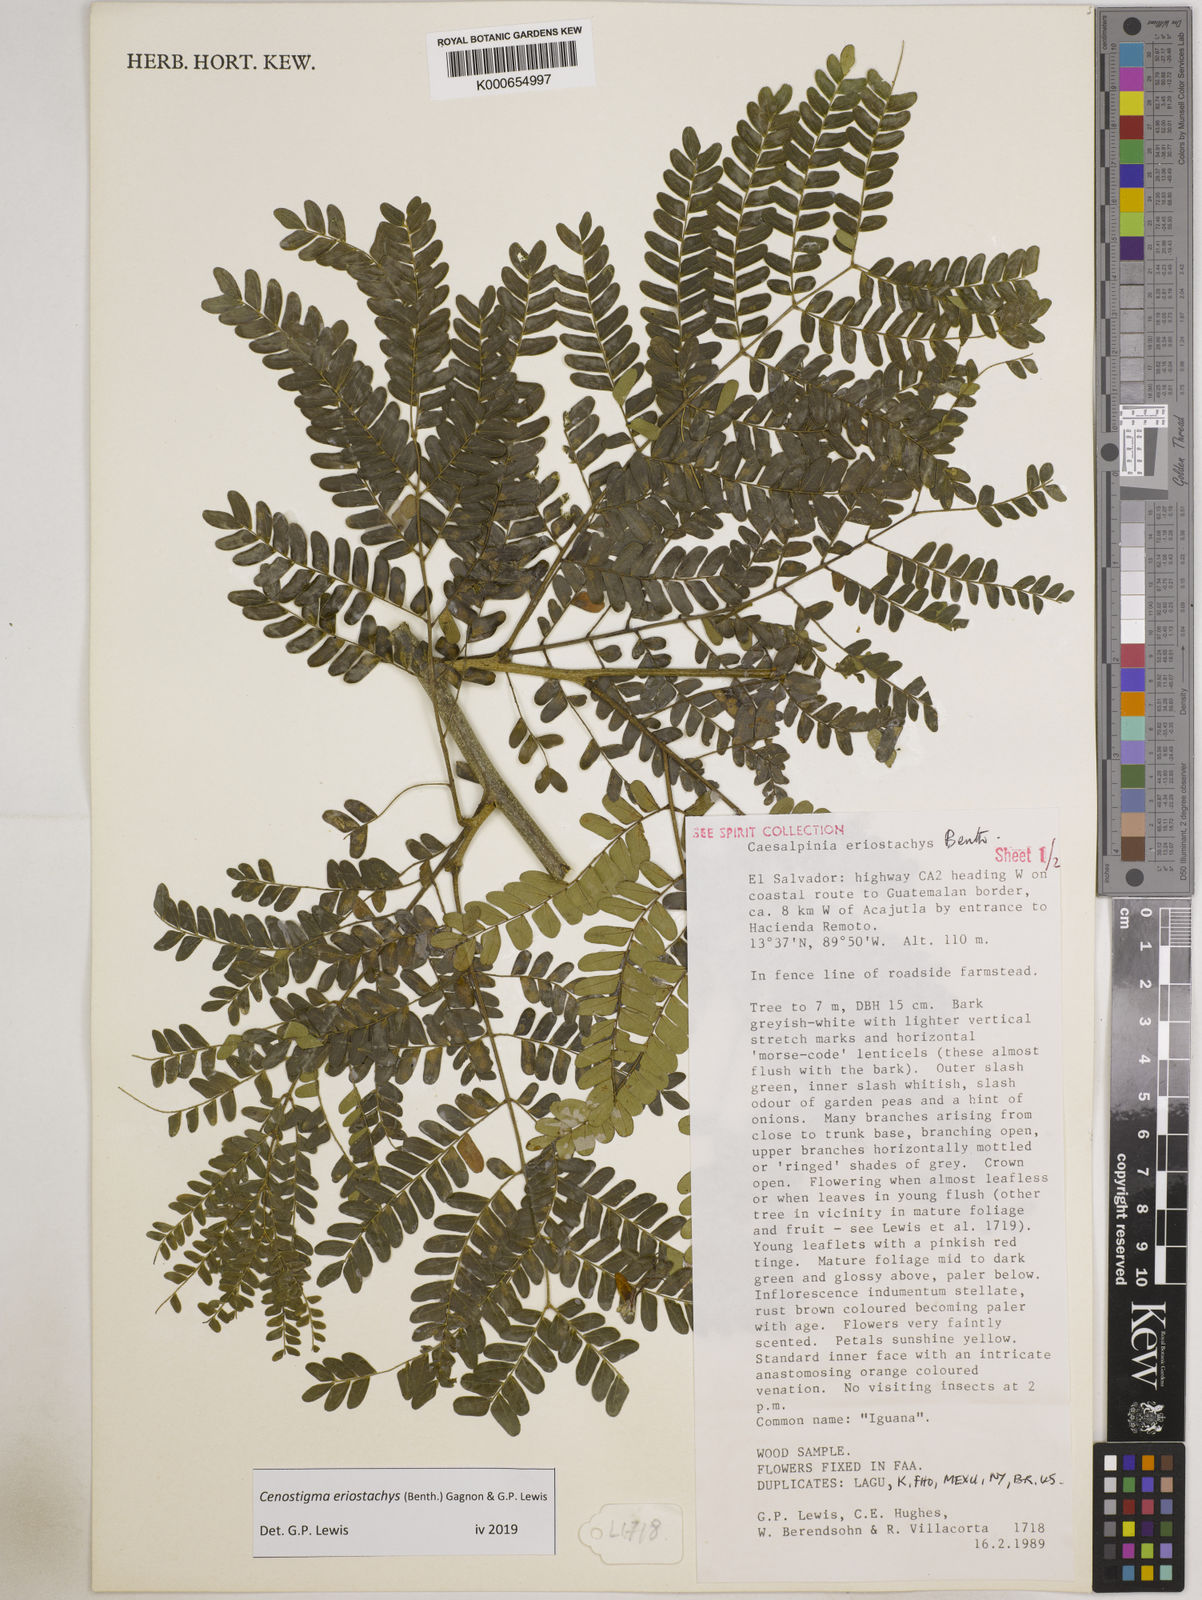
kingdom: Plantae
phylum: Tracheophyta
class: Magnoliopsida
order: Fabales
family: Fabaceae
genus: Cenostigma
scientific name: Cenostigma eriostachys
